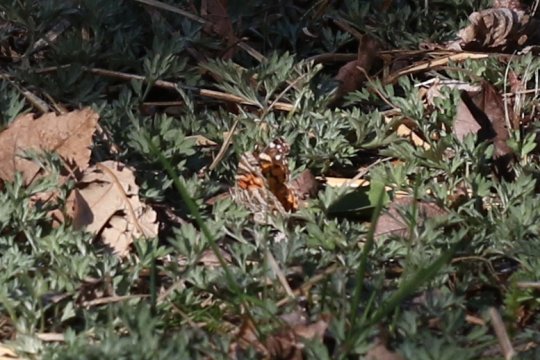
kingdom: Animalia
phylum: Arthropoda
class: Insecta
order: Lepidoptera
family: Nymphalidae
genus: Vanessa
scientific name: Vanessa virginiensis
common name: American Lady
